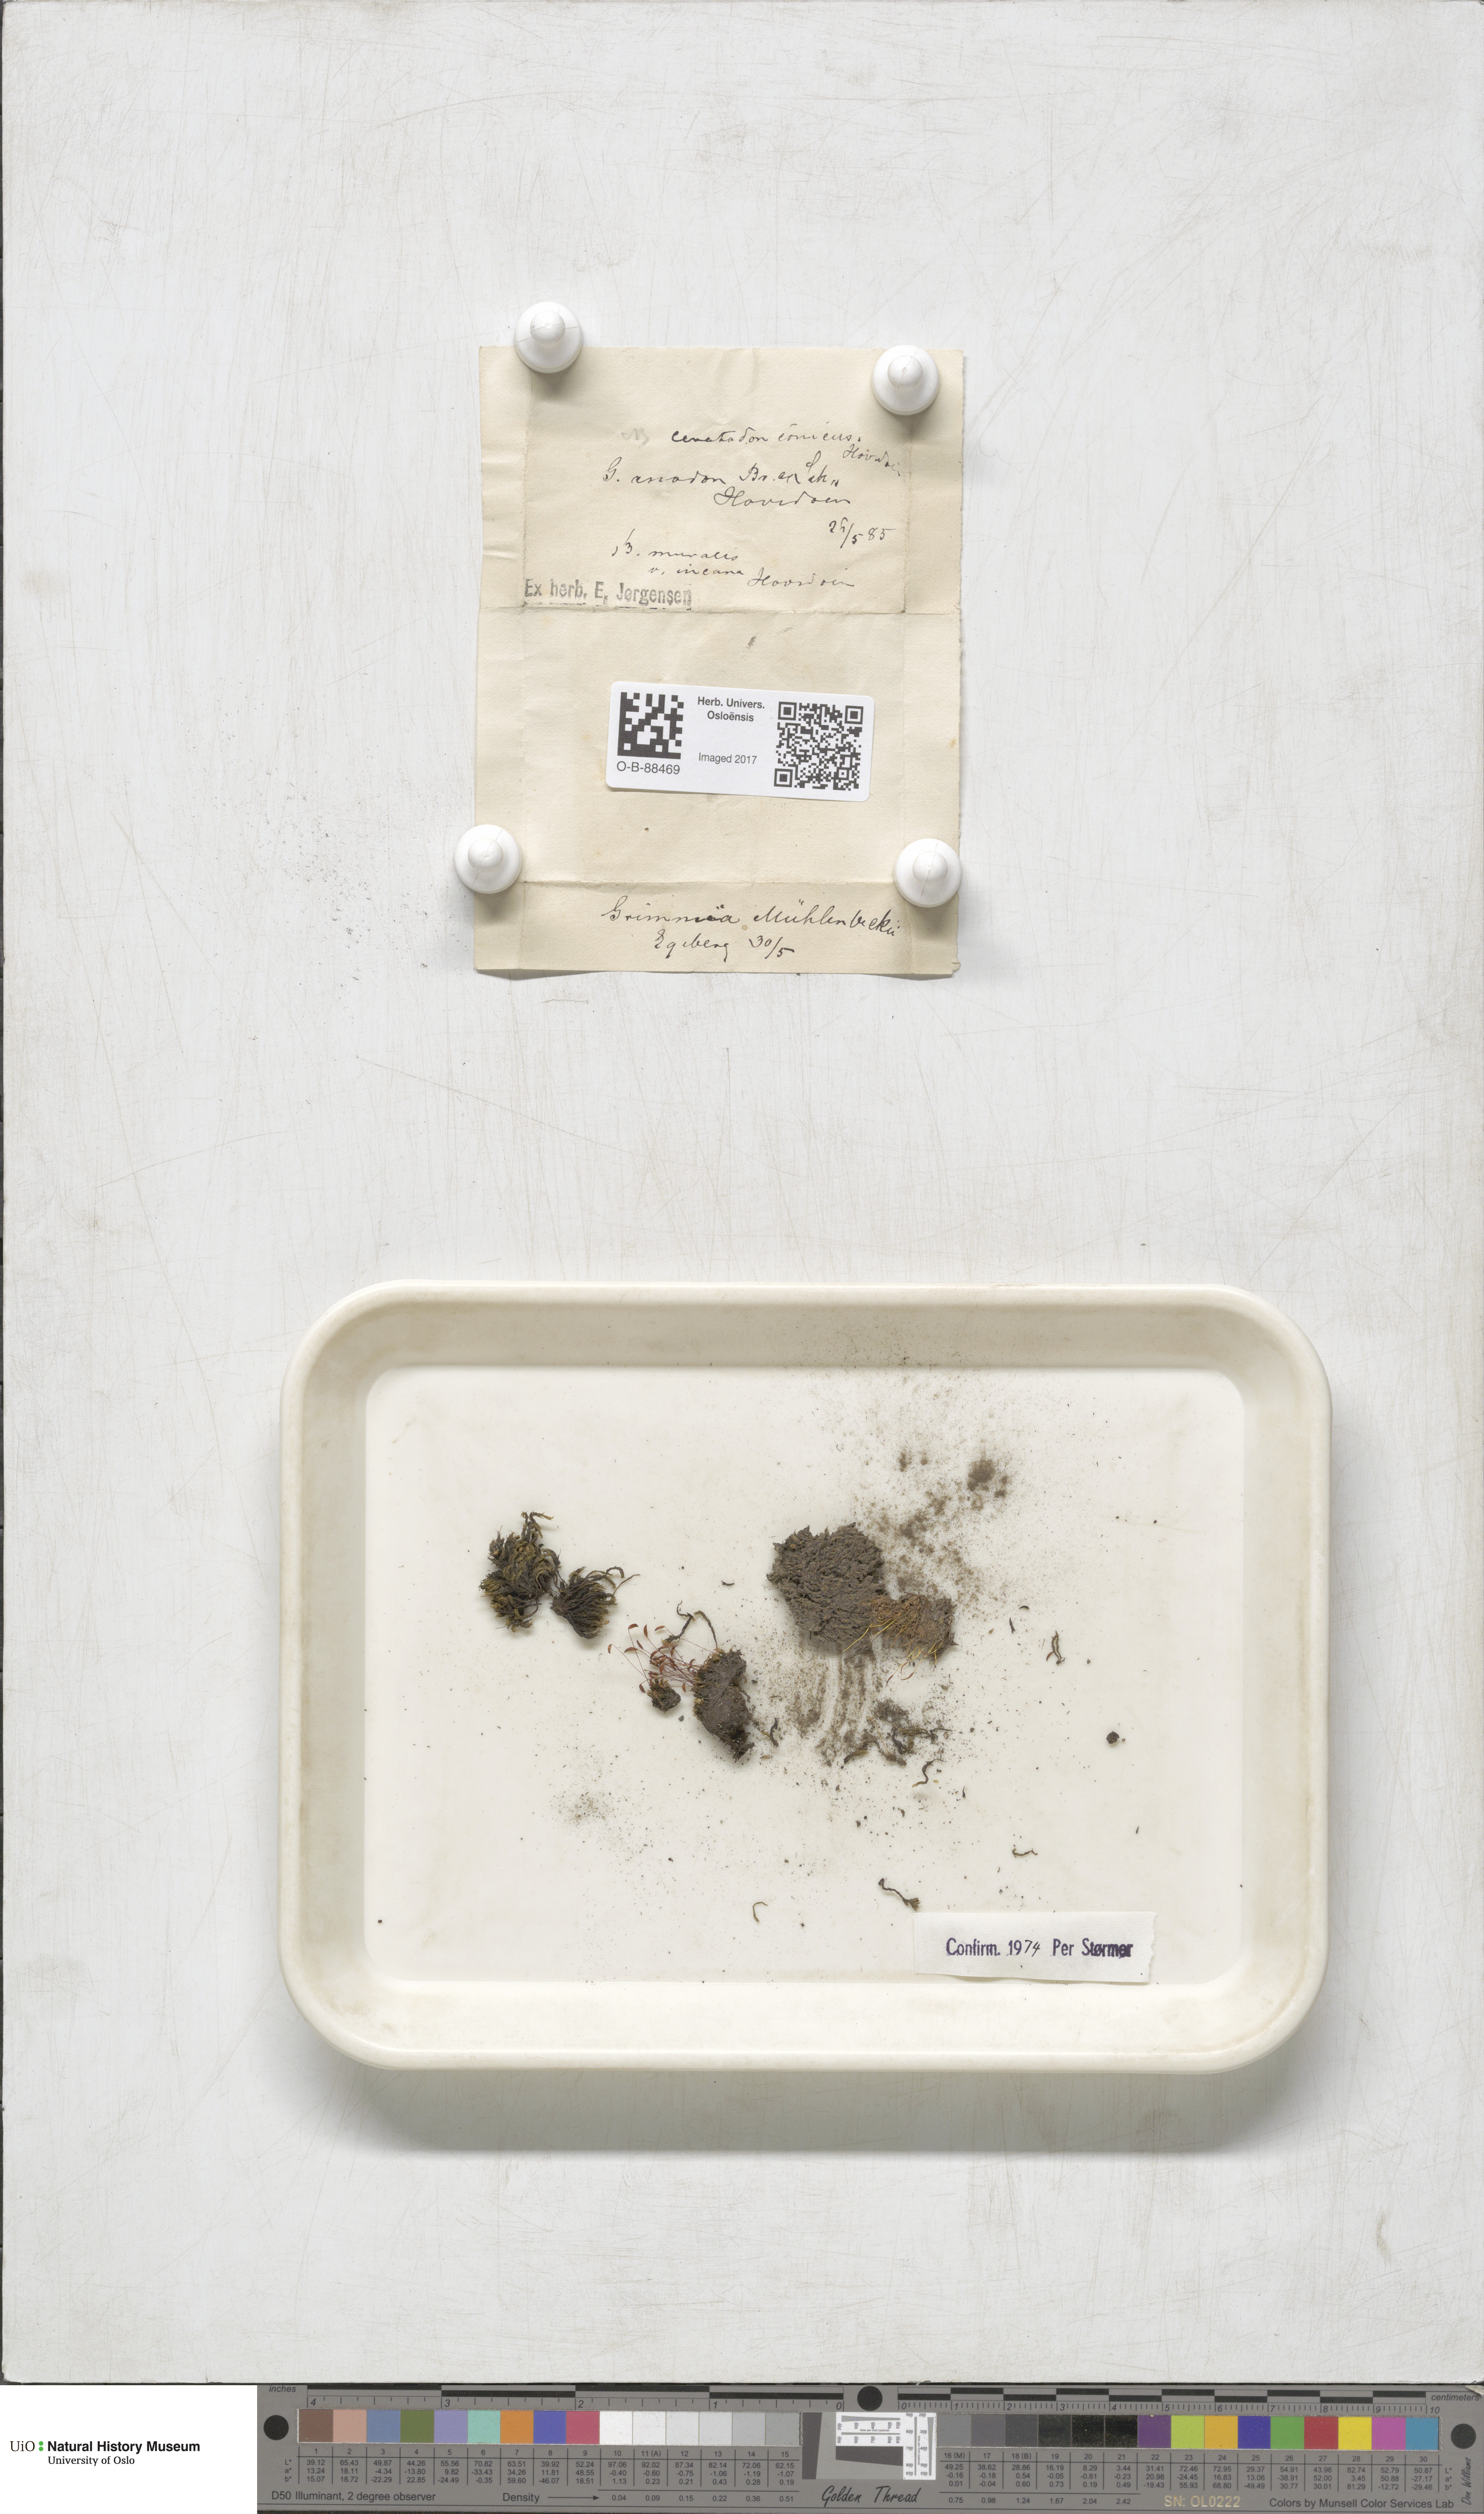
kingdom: Plantae
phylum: Bryophyta
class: Bryopsida
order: Grimmiales
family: Grimmiaceae
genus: Grimmia
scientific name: Grimmia trichophylla
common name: Hair-pointed grimmia
